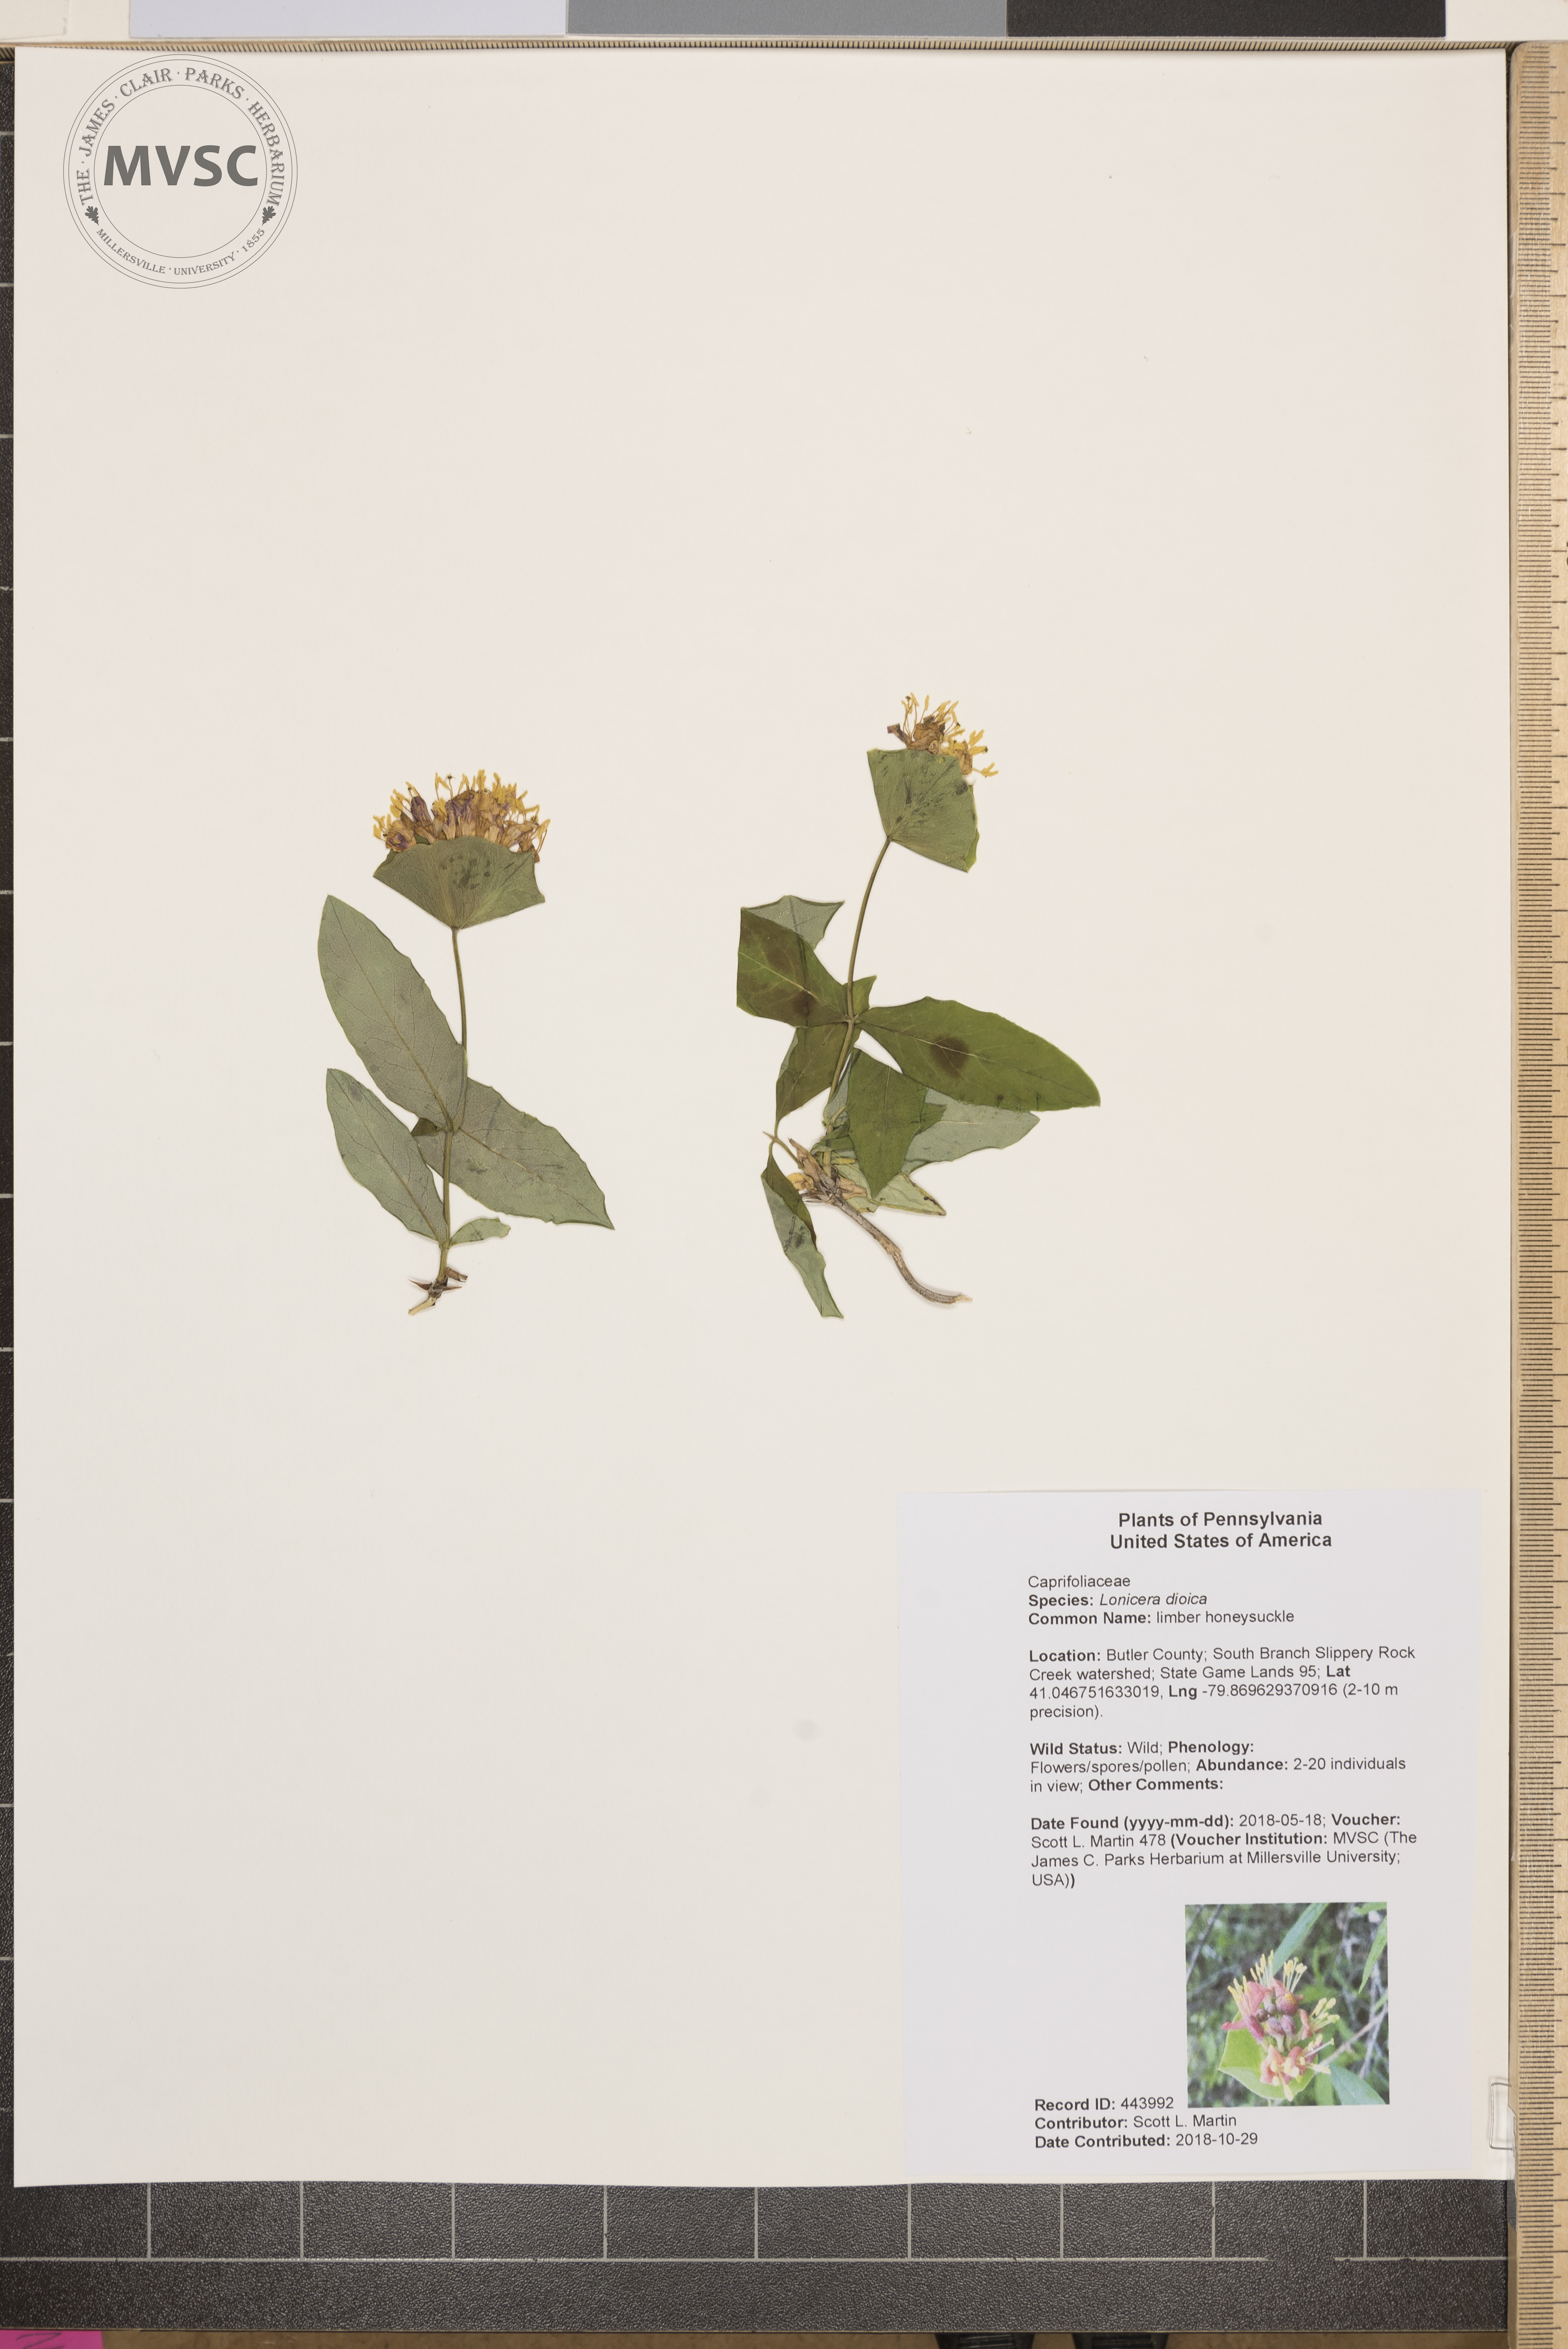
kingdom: Plantae
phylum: Tracheophyta
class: Magnoliopsida
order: Dipsacales
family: Caprifoliaceae
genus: Lonicera
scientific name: Lonicera dioica
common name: limber honeysuckle
